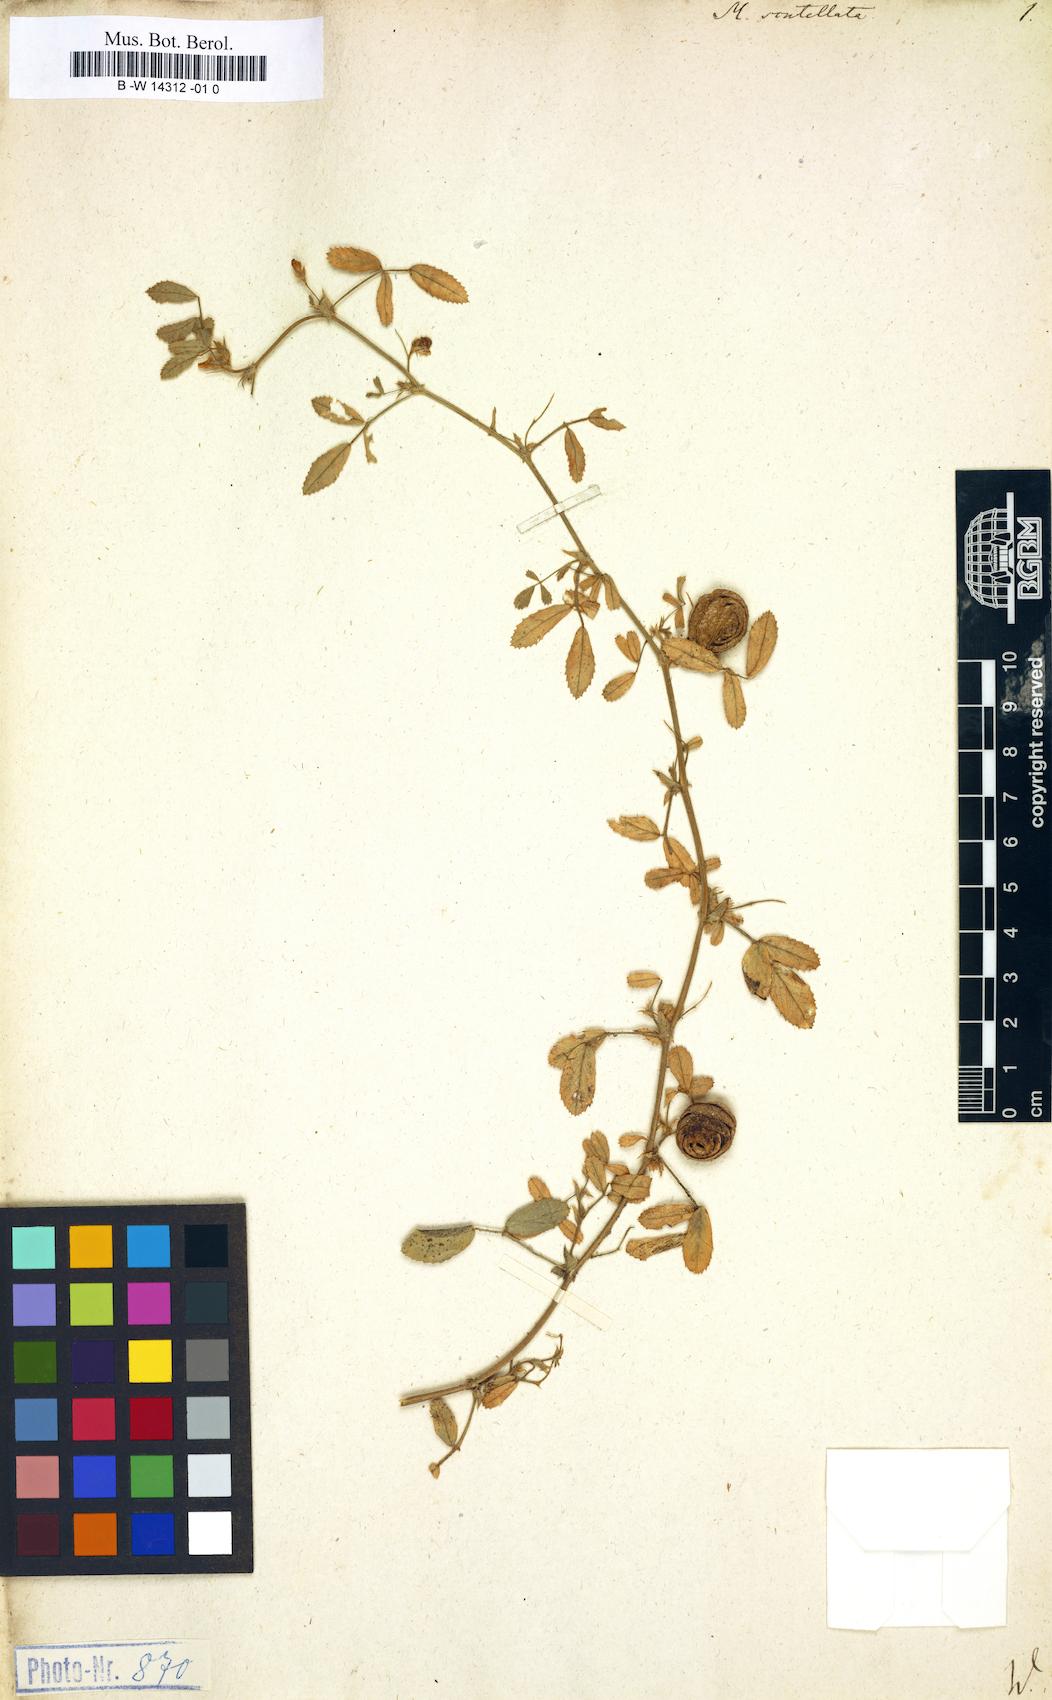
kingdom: Plantae
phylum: Tracheophyta
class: Magnoliopsida
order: Fabales
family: Fabaceae
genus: Medicago
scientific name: Medicago scutellata
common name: Snail medick
